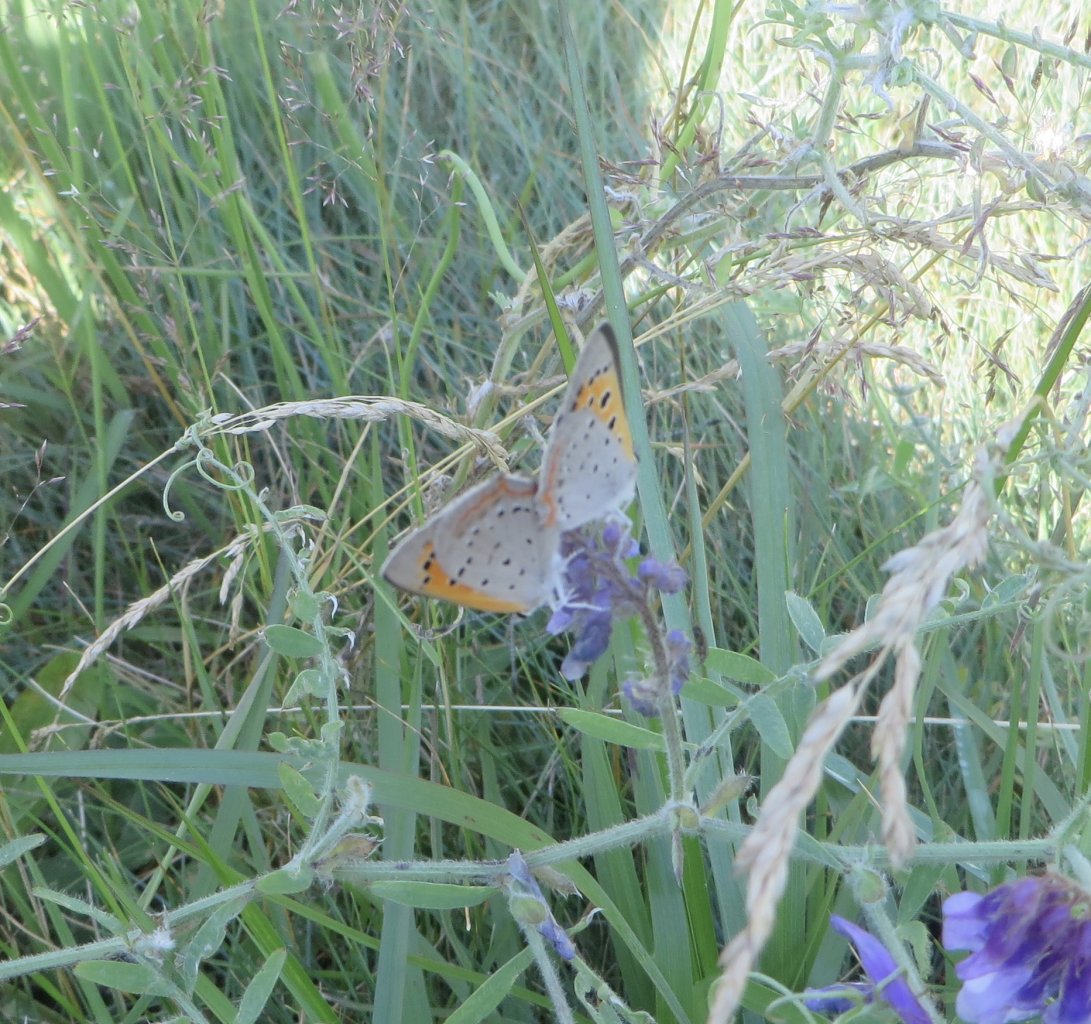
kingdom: Animalia
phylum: Arthropoda
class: Insecta
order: Lepidoptera
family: Lycaenidae
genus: Lycaena
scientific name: Lycaena phlaeas
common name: American Copper
